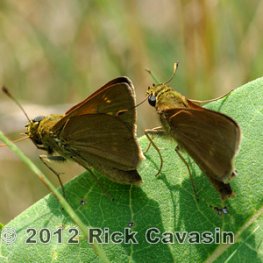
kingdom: Animalia
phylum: Arthropoda
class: Insecta
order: Lepidoptera
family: Hesperiidae
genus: Polites
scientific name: Polites
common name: Crossline Skipper
